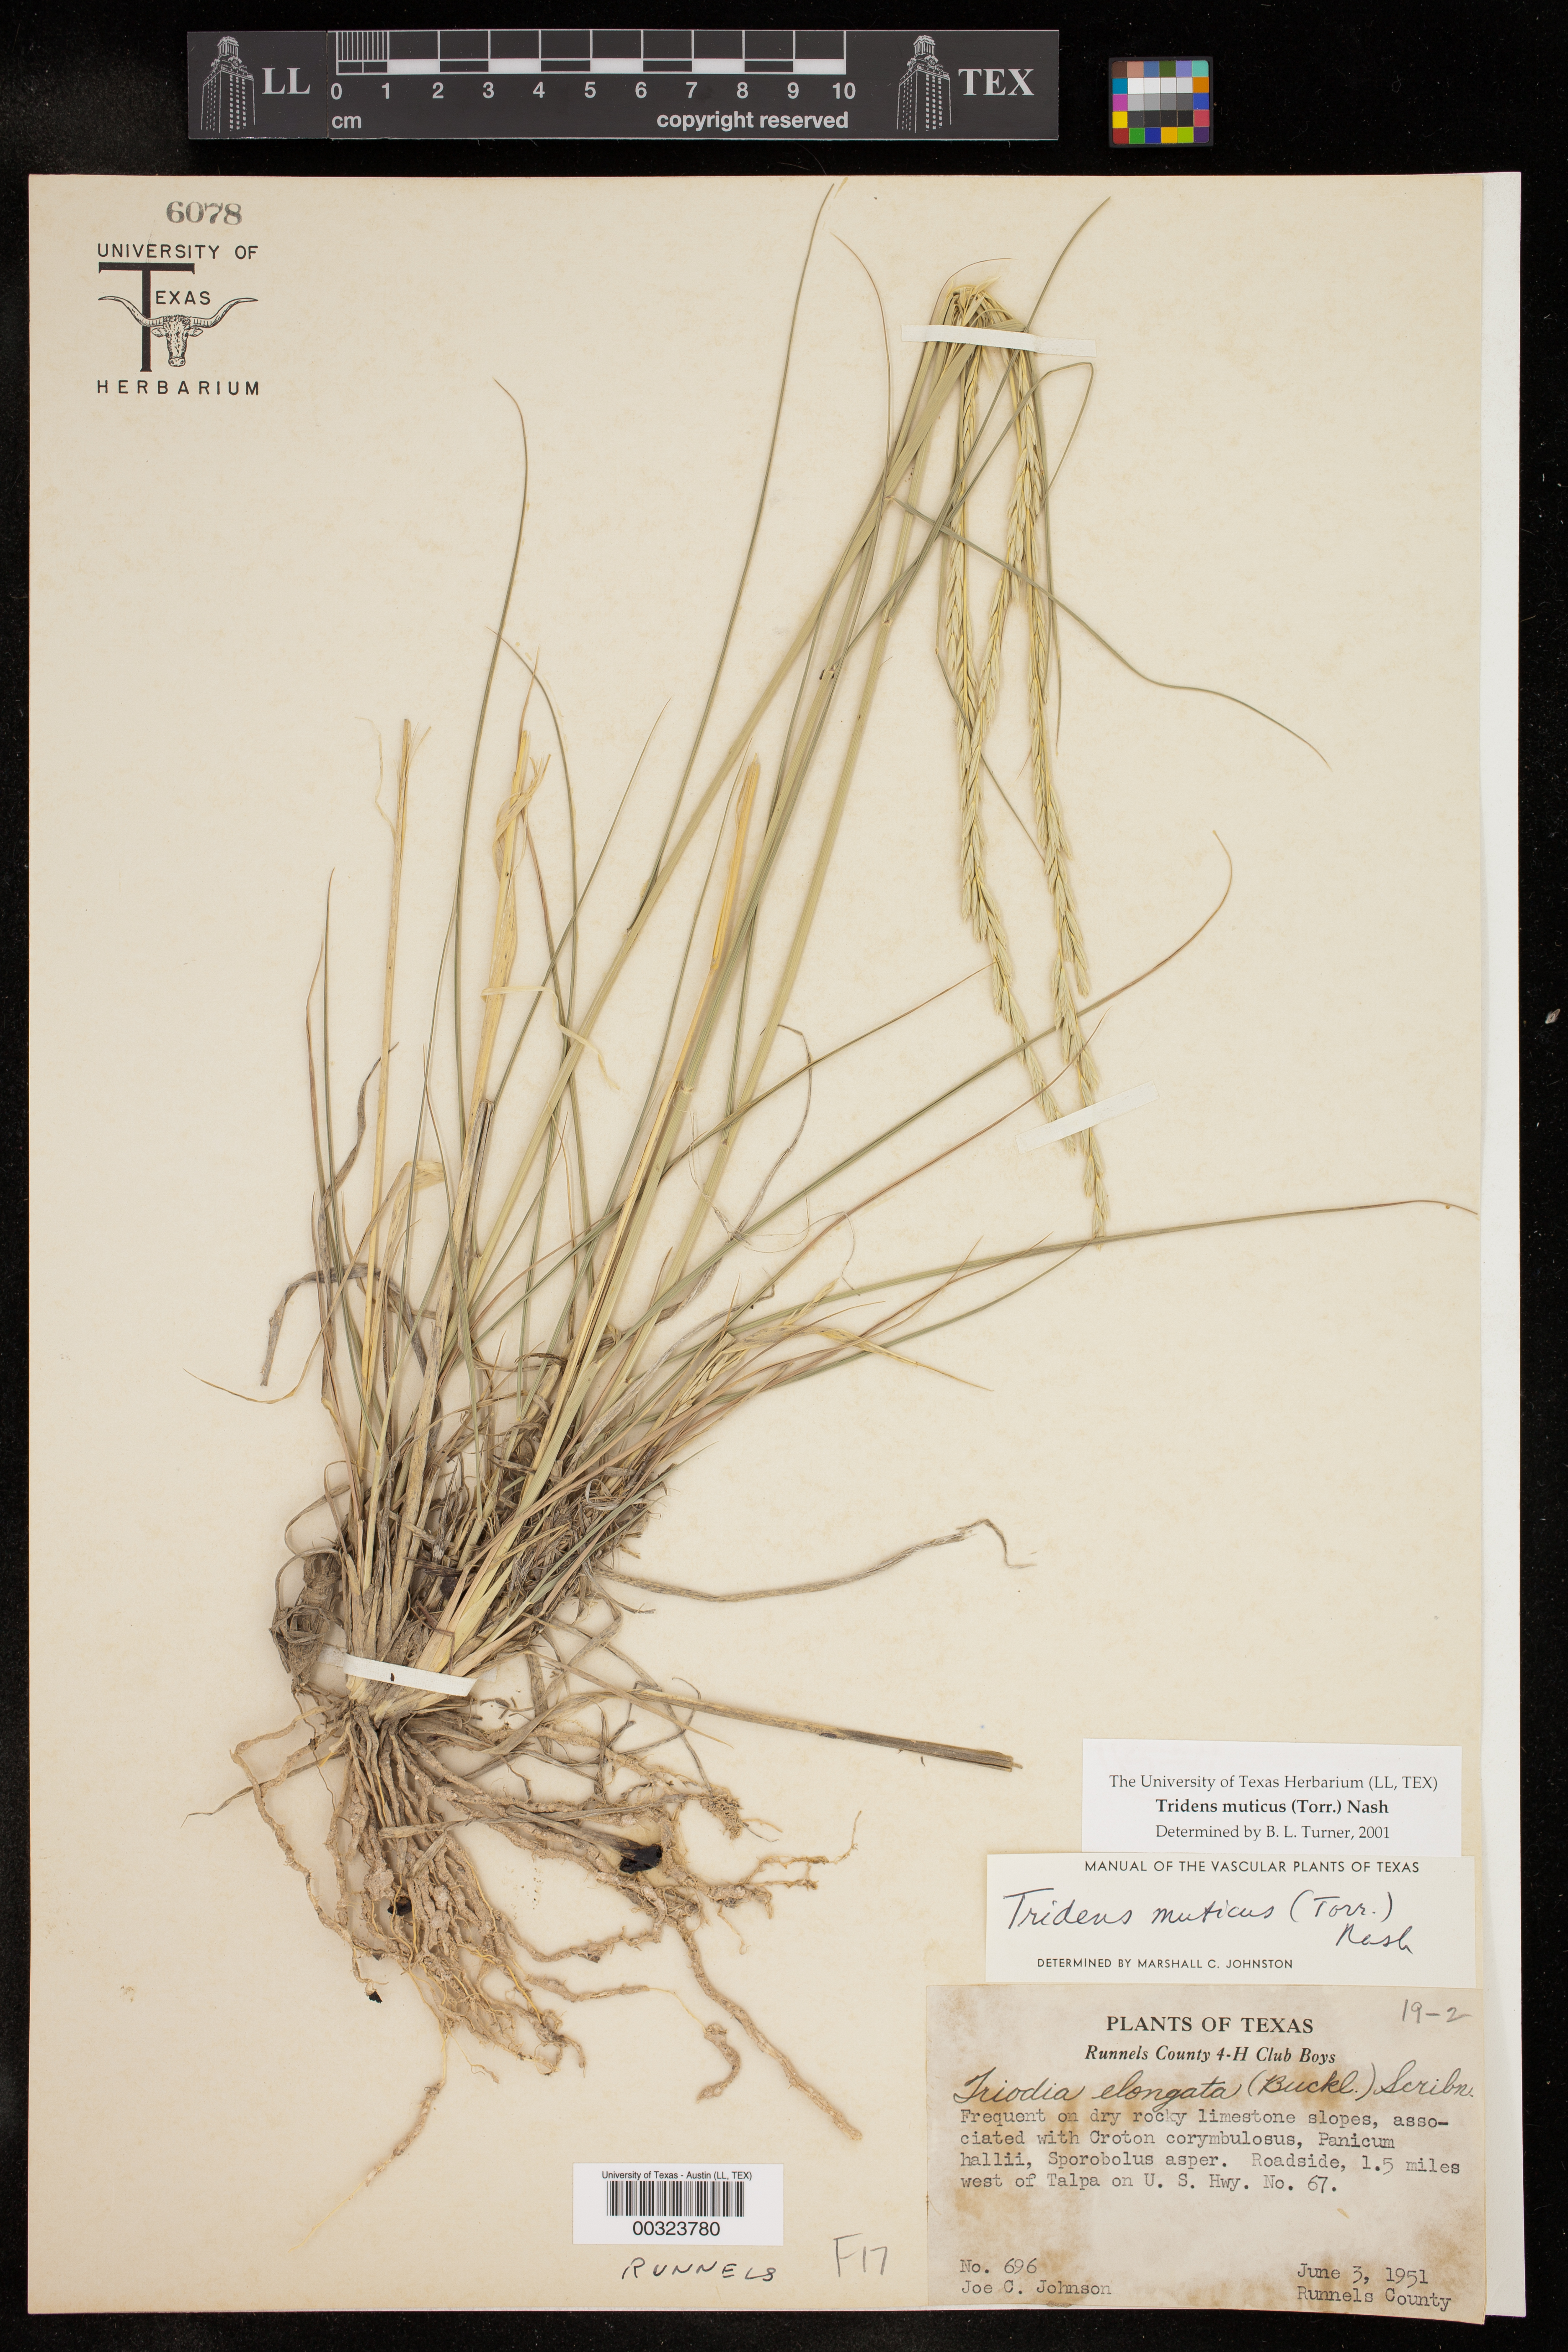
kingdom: Plantae
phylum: Tracheophyta
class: Liliopsida
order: Poales
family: Poaceae
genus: Tridentopsis
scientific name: Tridentopsis mutica
